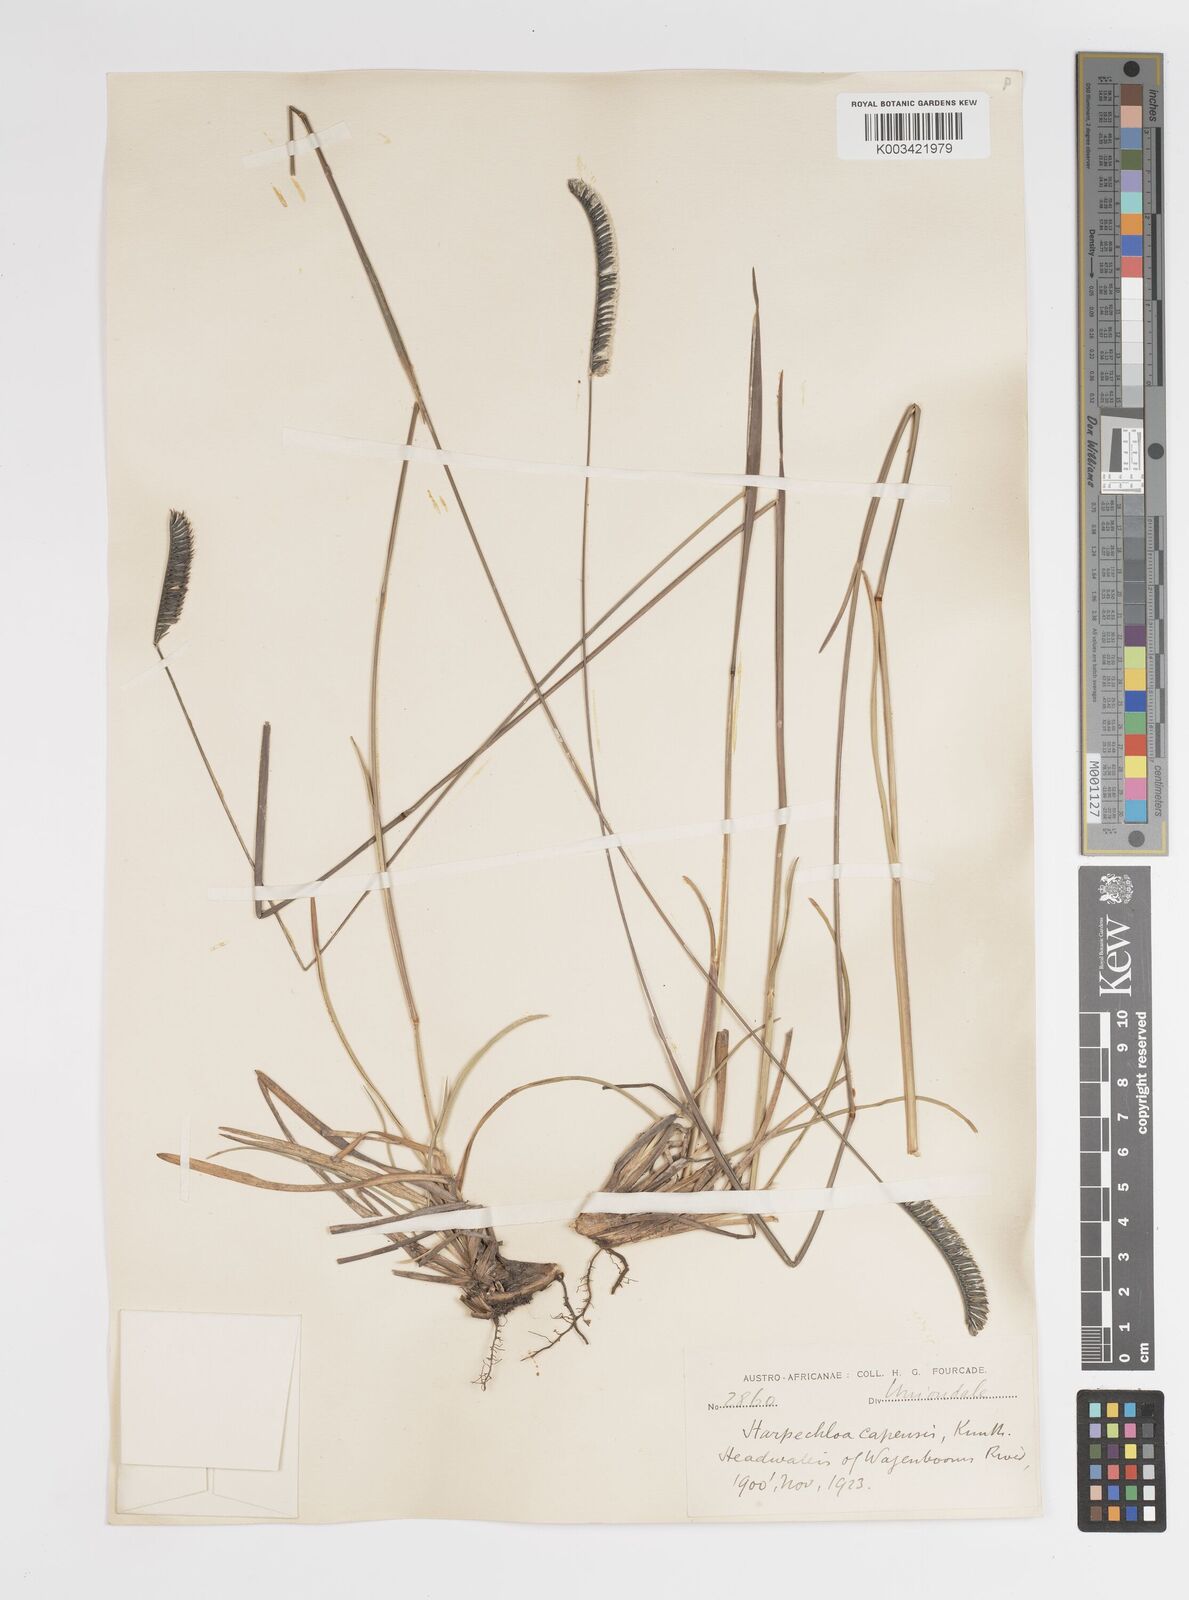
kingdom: Plantae
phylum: Tracheophyta
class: Liliopsida
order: Poales
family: Poaceae
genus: Harpochloa
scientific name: Harpochloa falx
